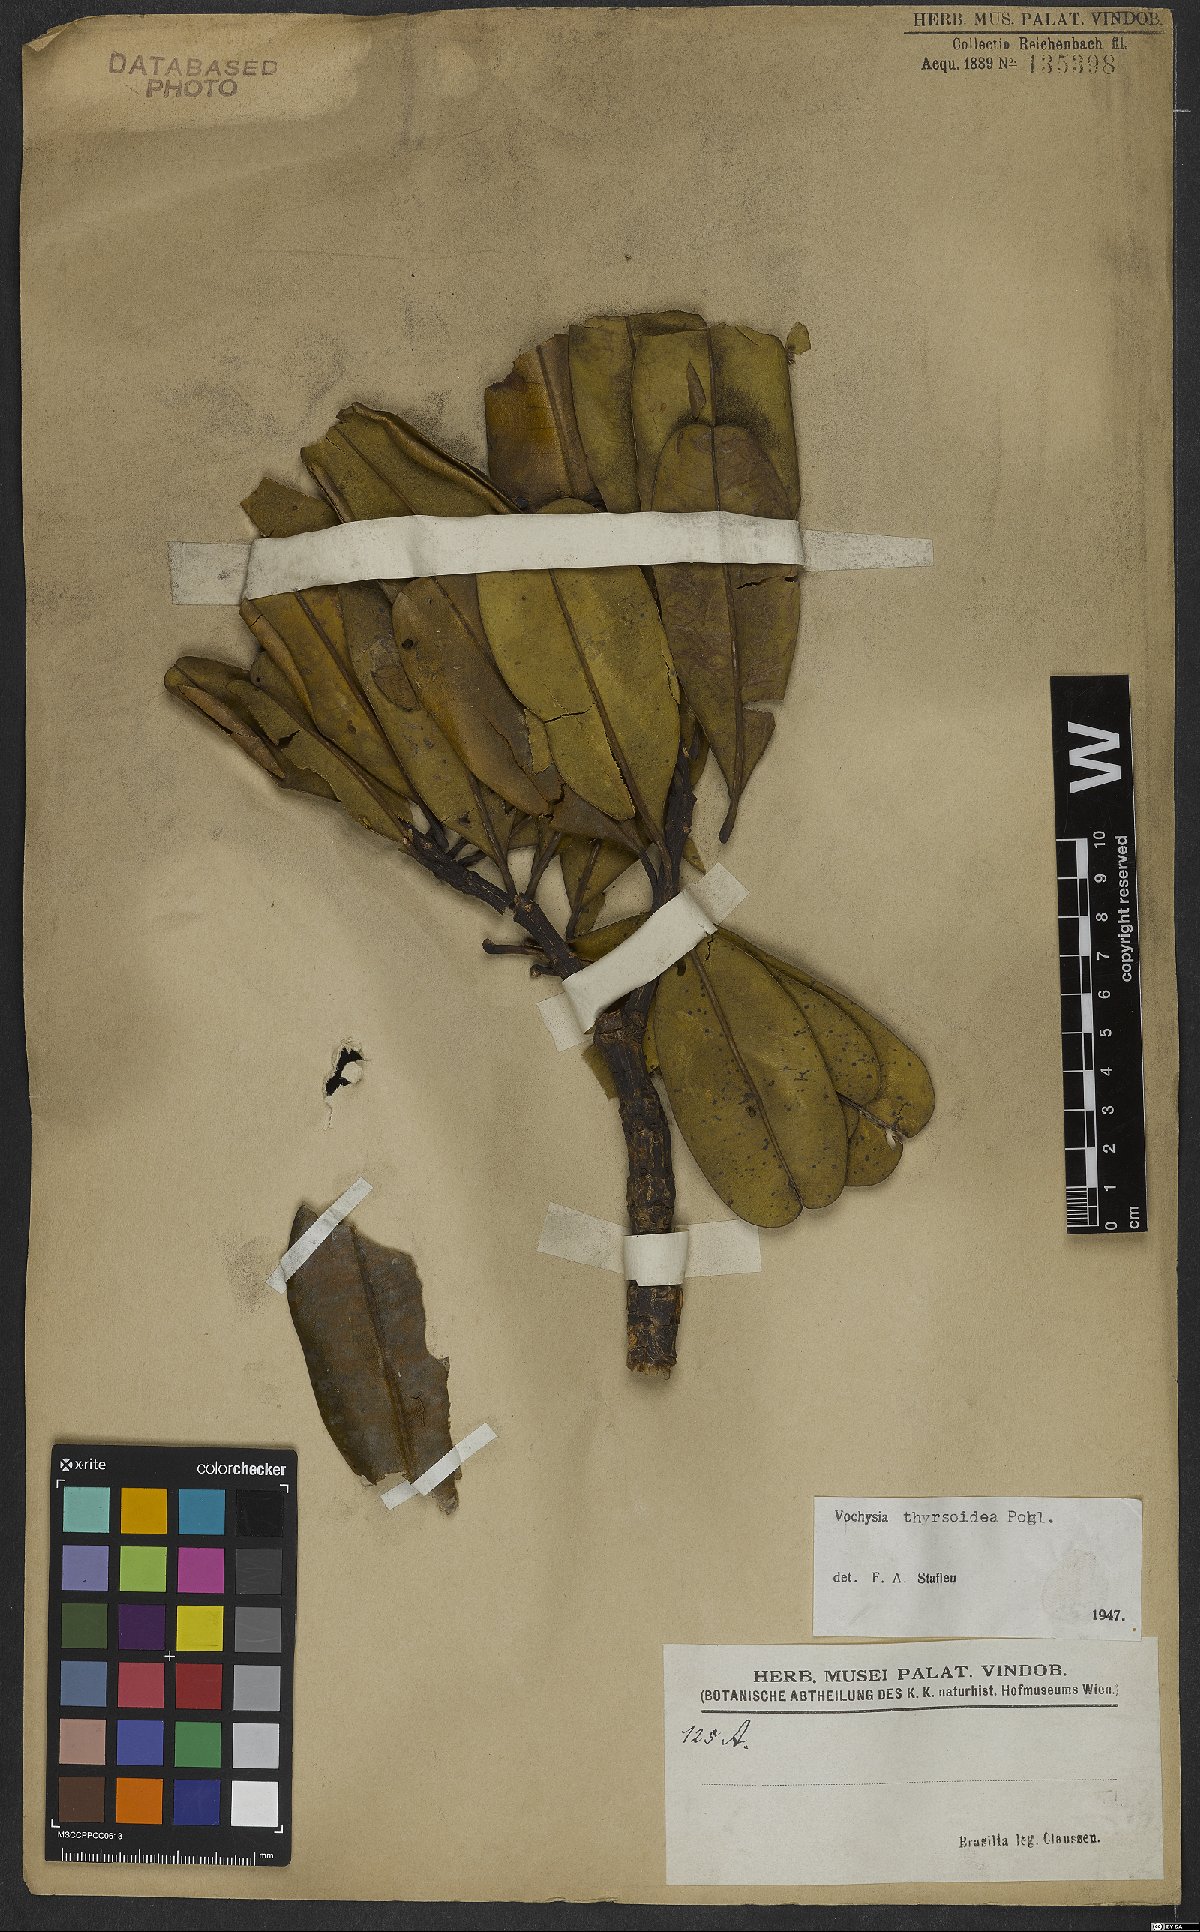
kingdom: Plantae
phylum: Tracheophyta
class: Magnoliopsida
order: Myrtales
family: Vochysiaceae
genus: Vochysia
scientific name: Vochysia thyrsoidea
